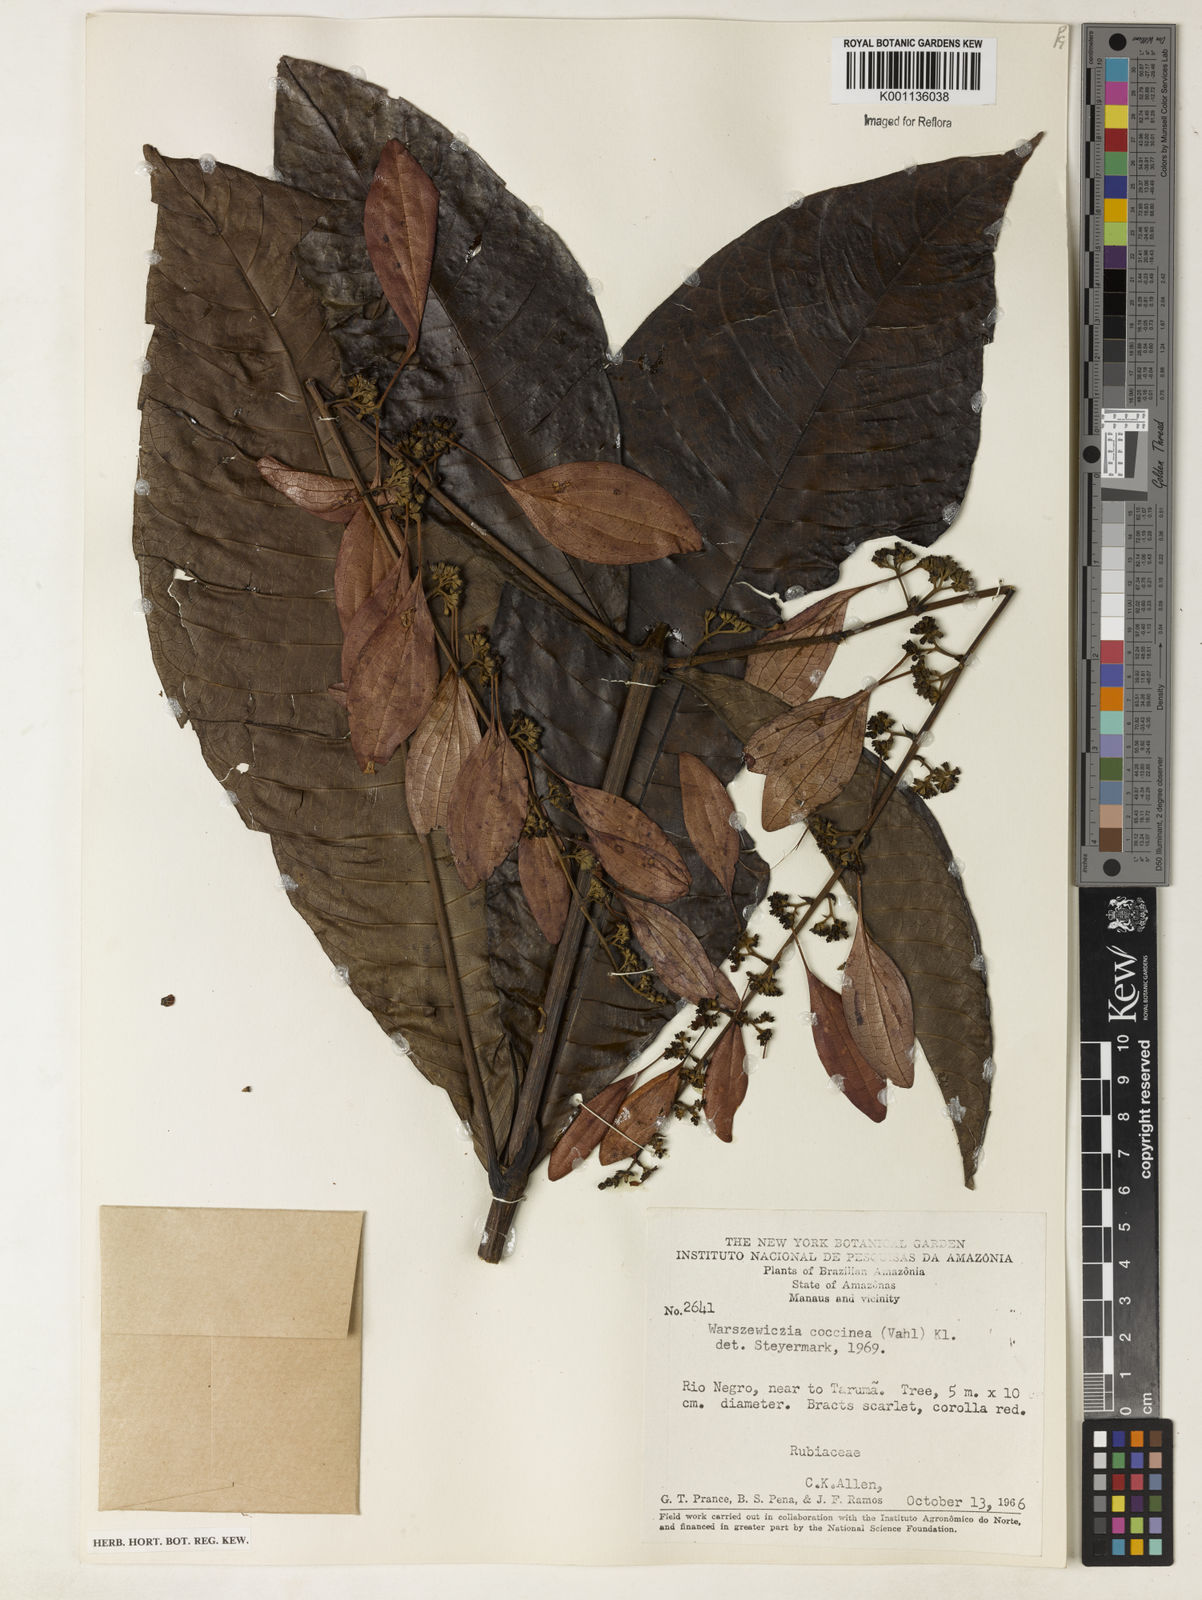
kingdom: Plantae
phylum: Tracheophyta
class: Magnoliopsida
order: Gentianales
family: Rubiaceae
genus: Warszewiczia
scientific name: Warszewiczia coccinea
